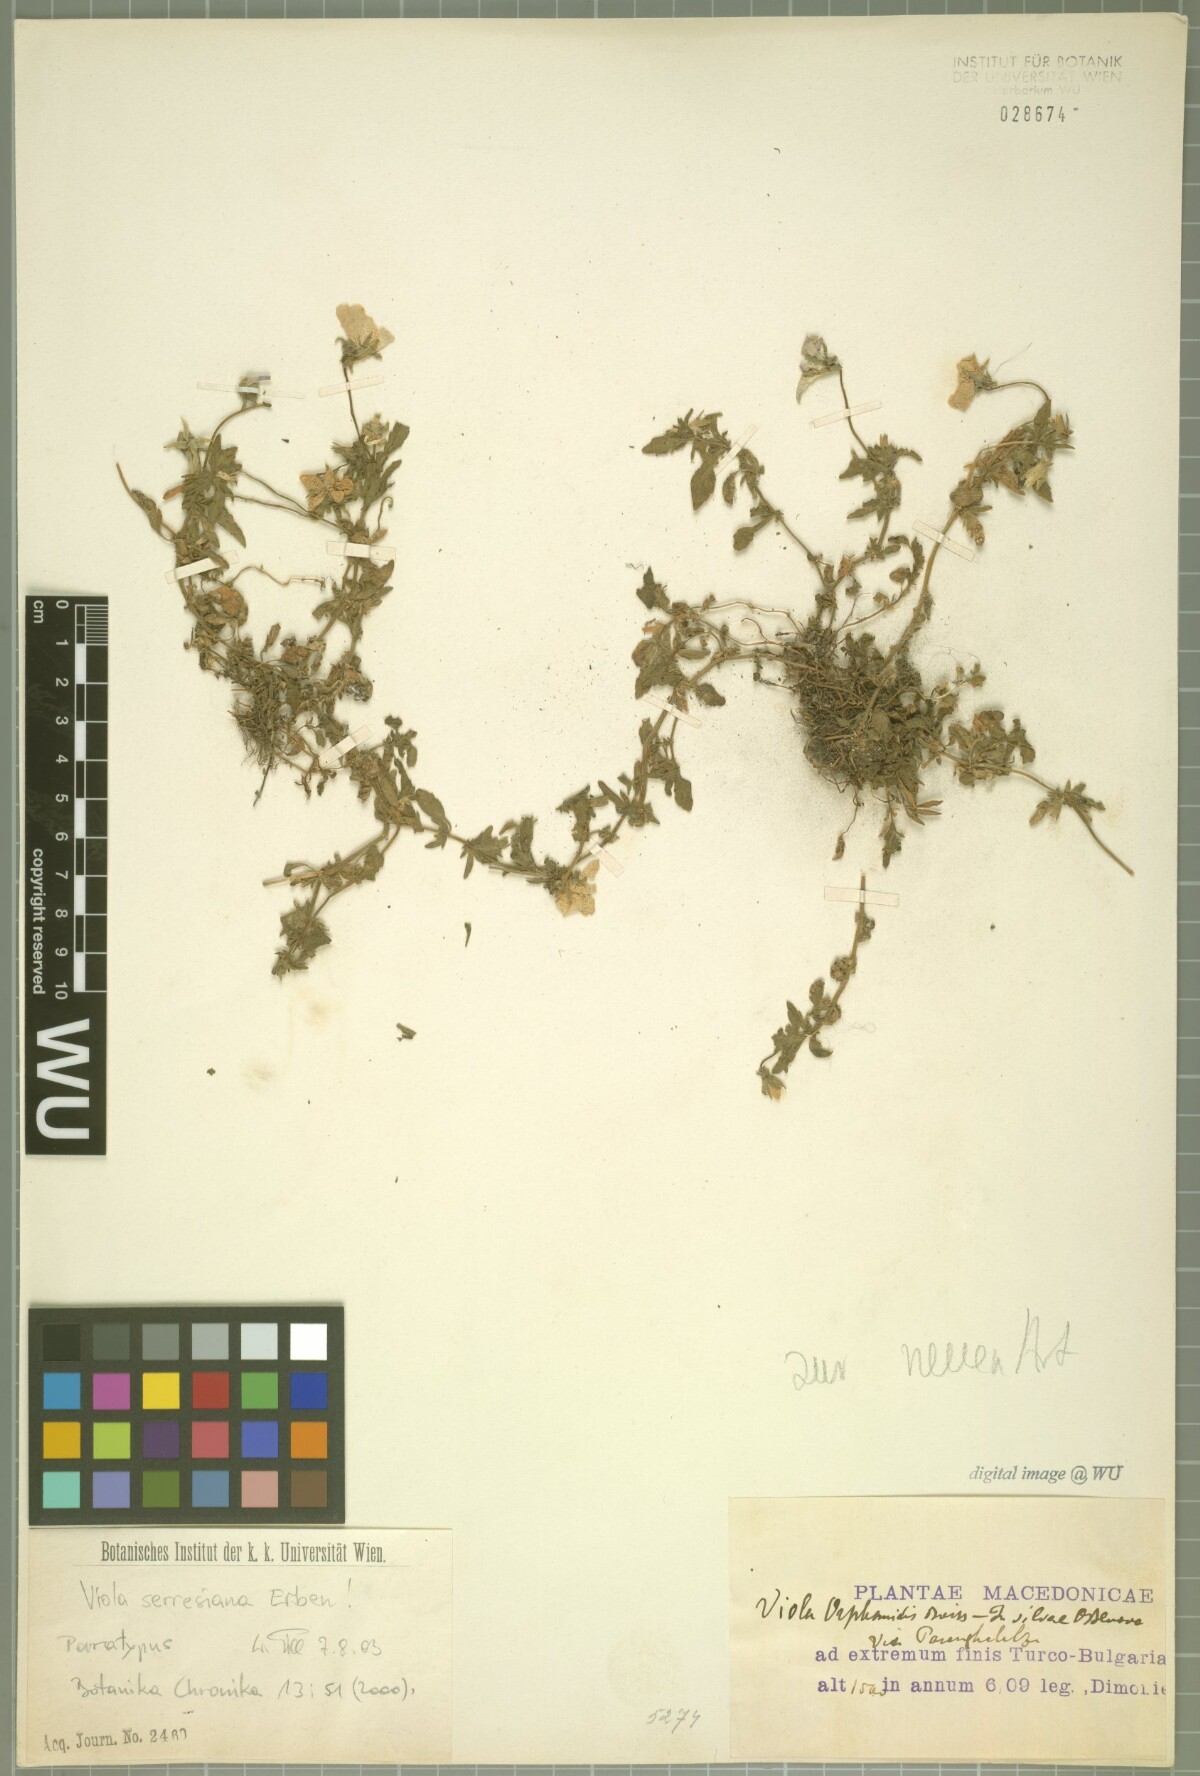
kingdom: Plantae
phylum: Tracheophyta
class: Magnoliopsida
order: Malpighiales
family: Violaceae
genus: Viola
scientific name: Viola serresiana
